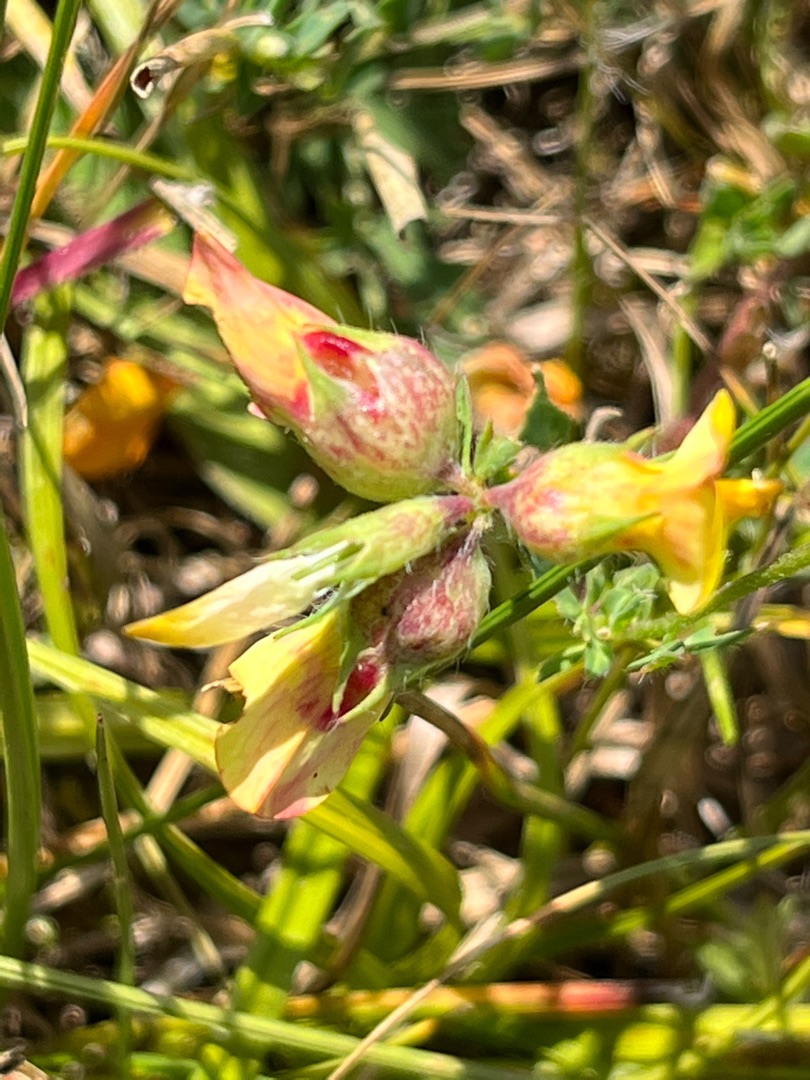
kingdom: Animalia
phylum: Arthropoda
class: Insecta
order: Diptera
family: Cecidomyiidae
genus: Contarinia
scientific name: Contarinia loti
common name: Kællingetandblomstgalmyg
